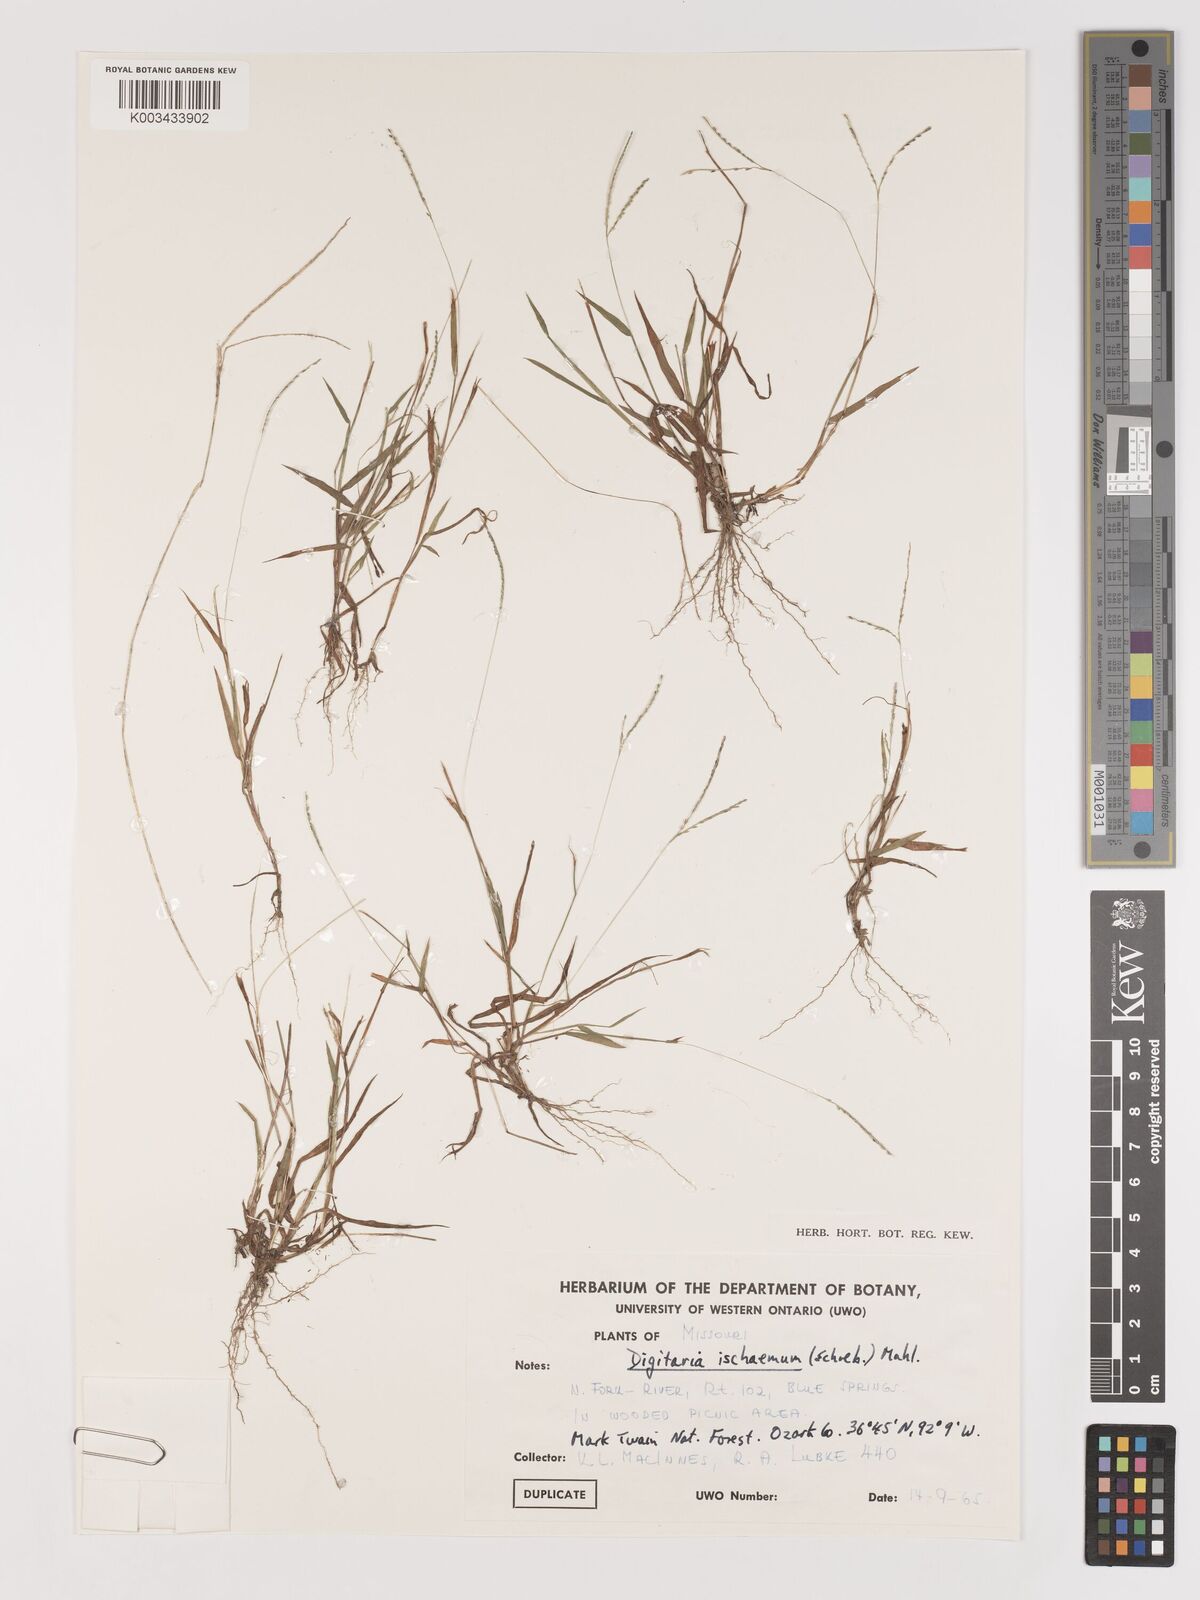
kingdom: Plantae
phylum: Tracheophyta
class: Liliopsida
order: Poales
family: Poaceae
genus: Digitaria
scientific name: Digitaria ischaemum
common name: Smooth crabgrass
